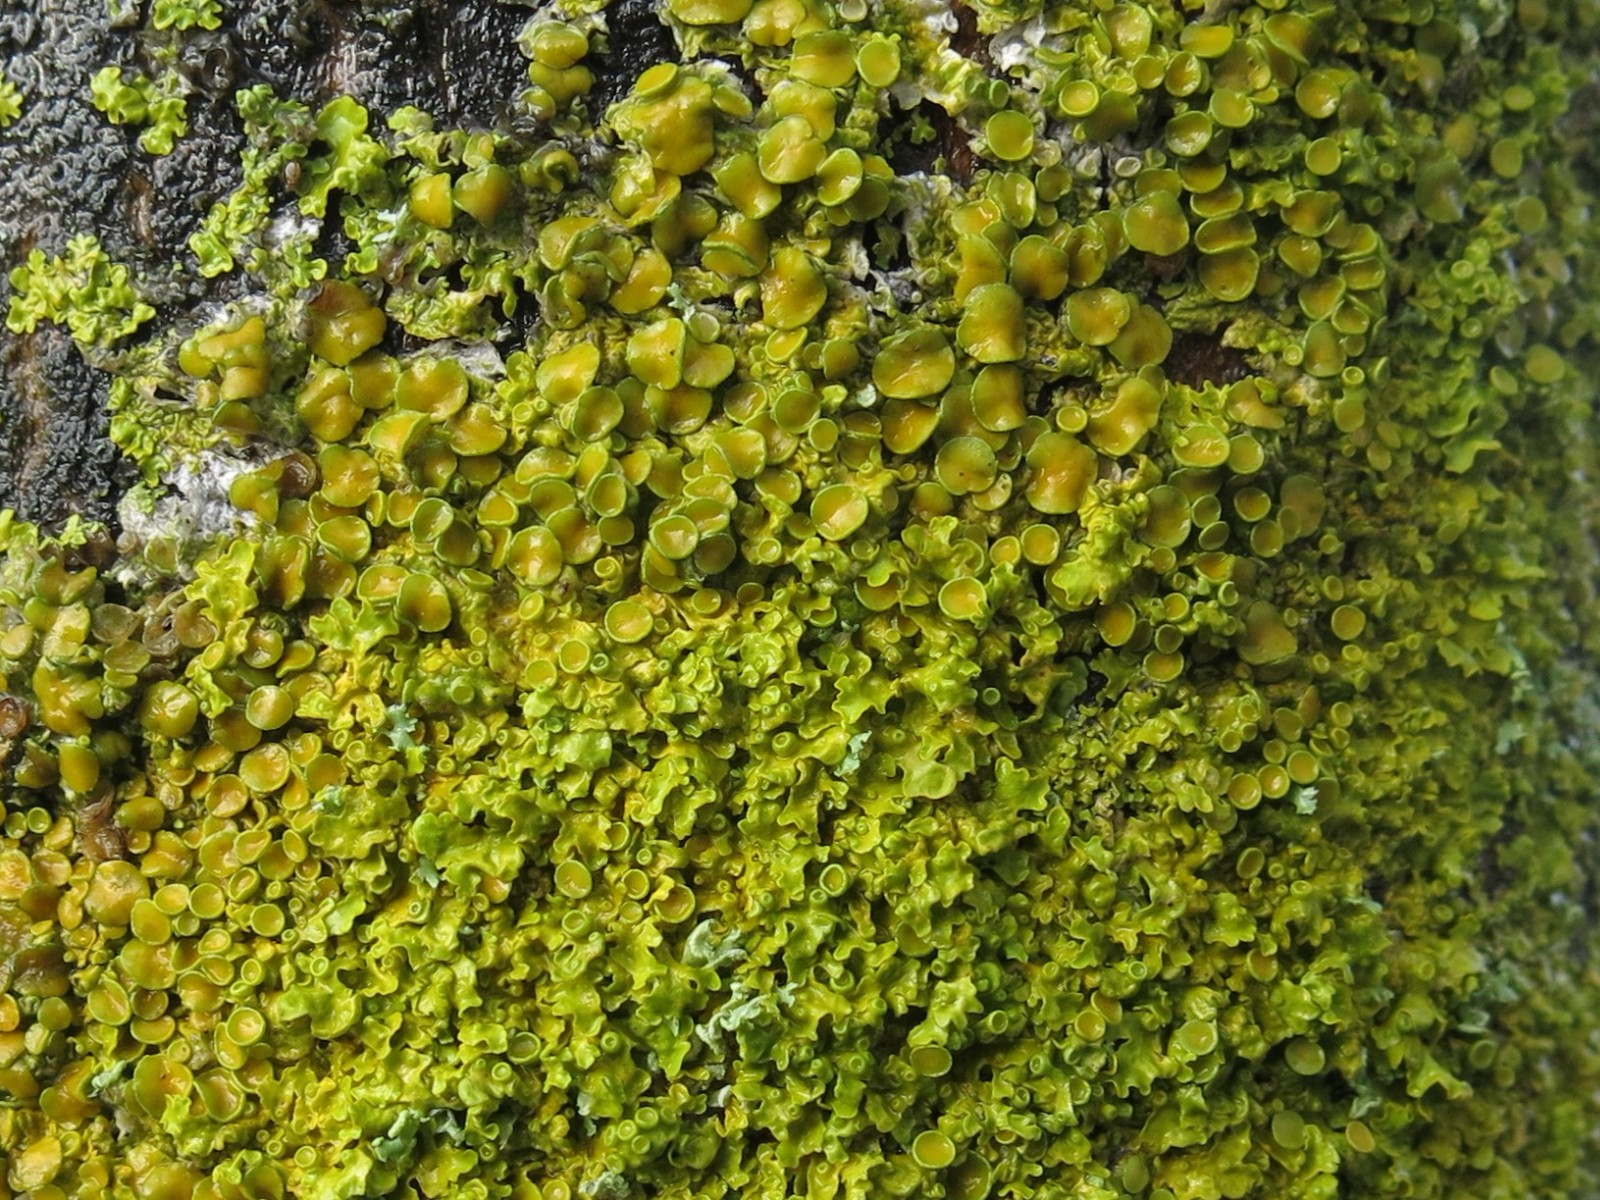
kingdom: Fungi
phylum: Ascomycota
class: Lecanoromycetes
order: Teloschistales
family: Teloschistaceae
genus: Xanthoria
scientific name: Xanthoria parietina
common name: almindelig væggelav
